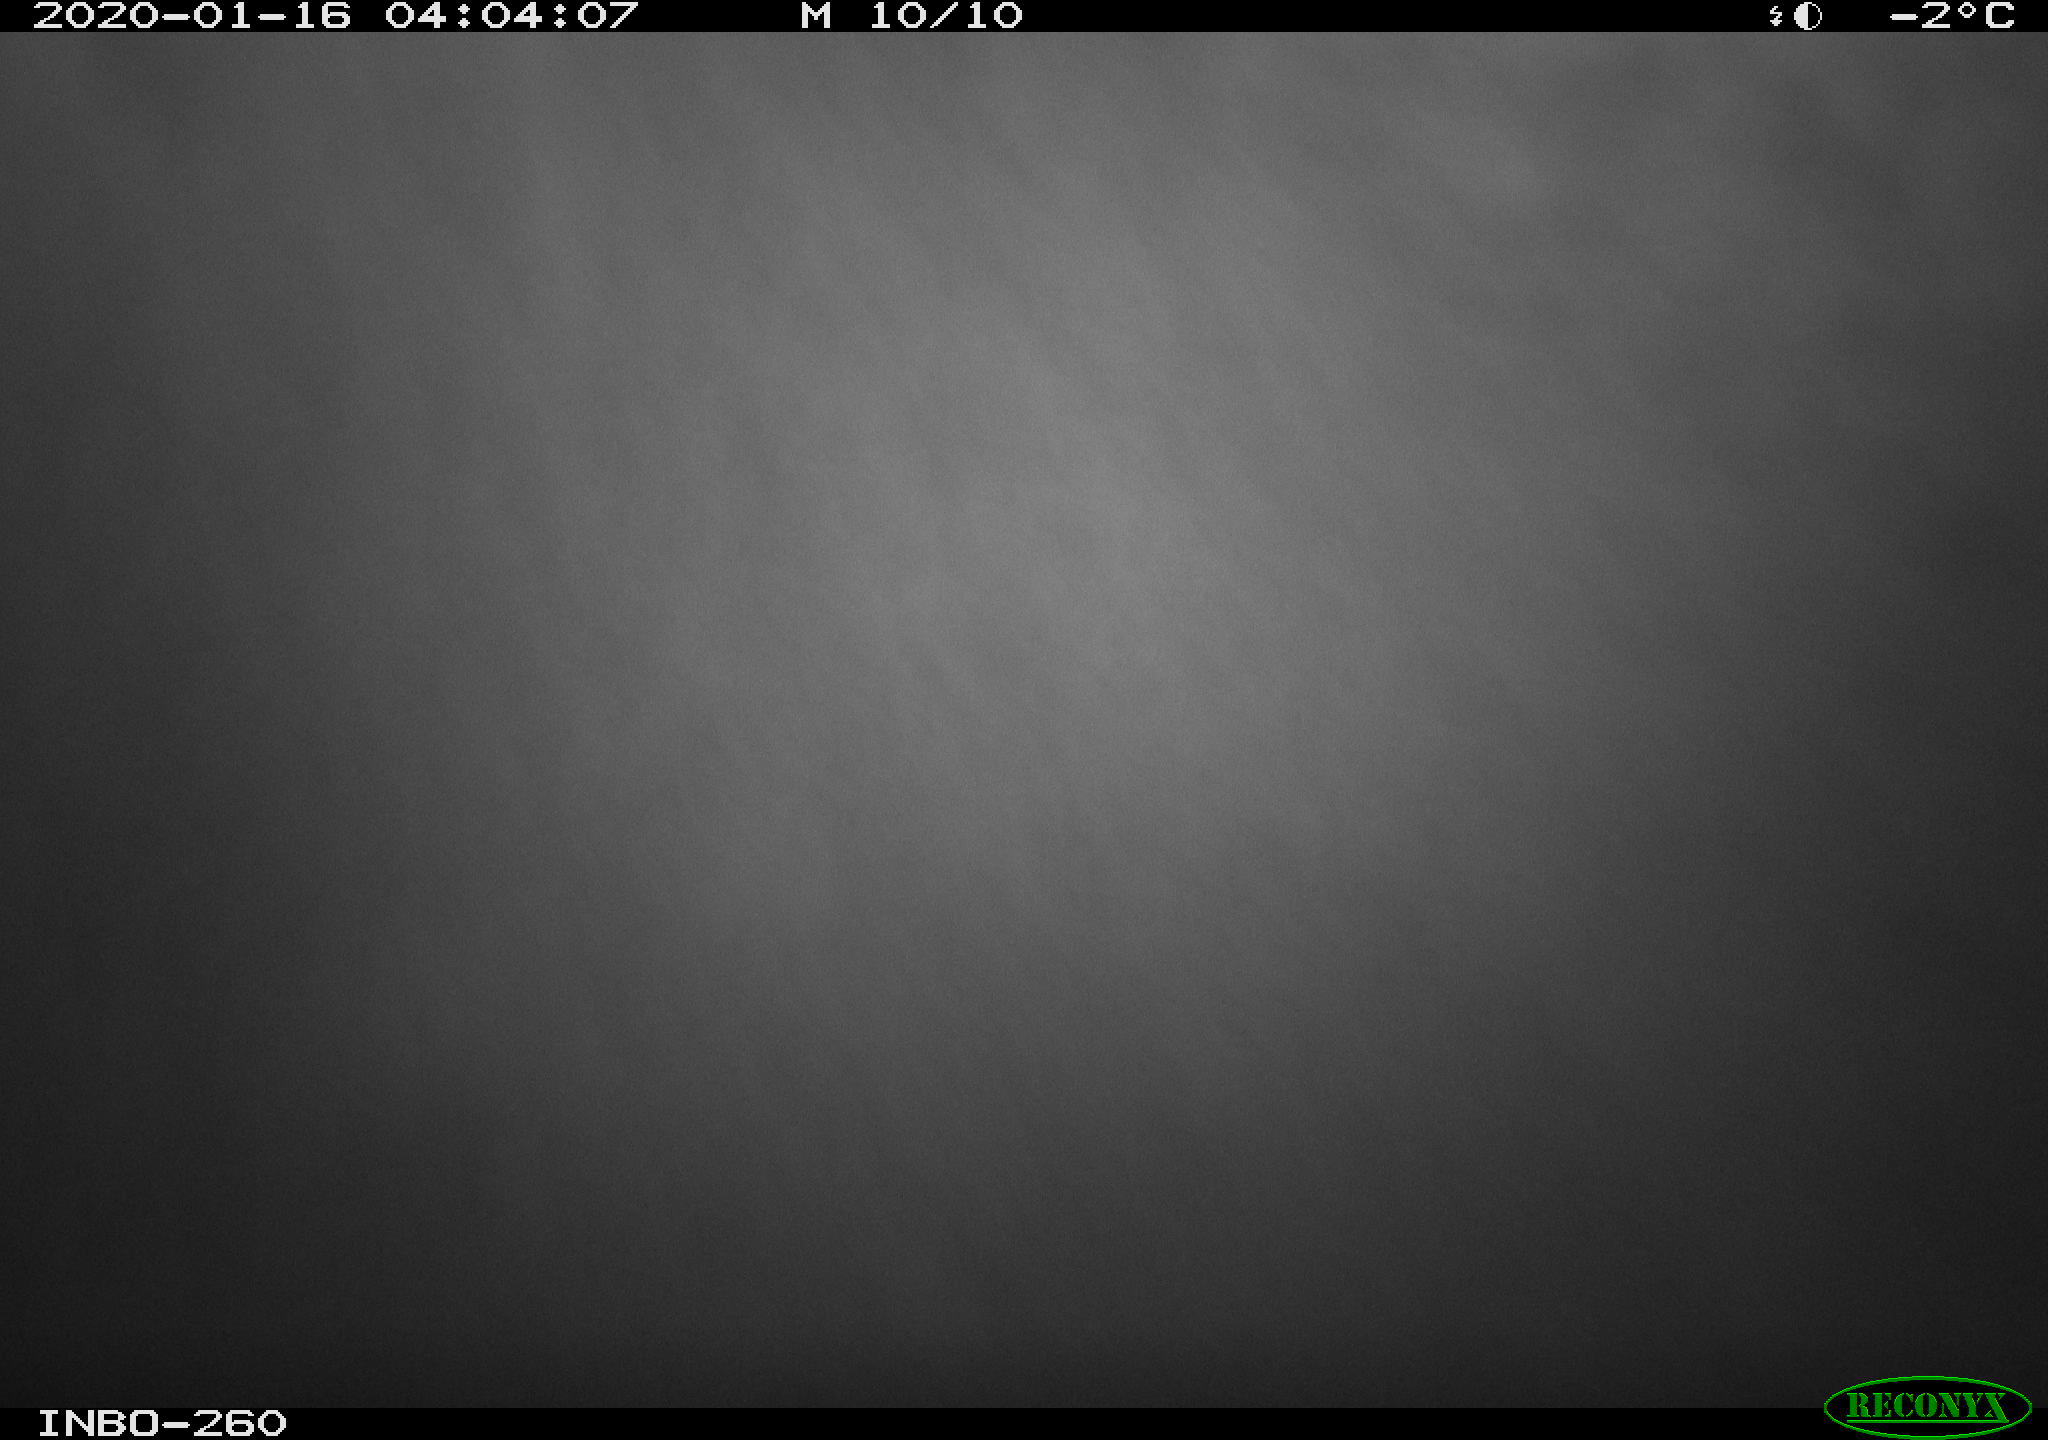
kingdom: Animalia
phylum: Chordata
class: Aves
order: Anseriformes
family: Anatidae
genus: Anas
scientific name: Anas platyrhynchos
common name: Mallard
